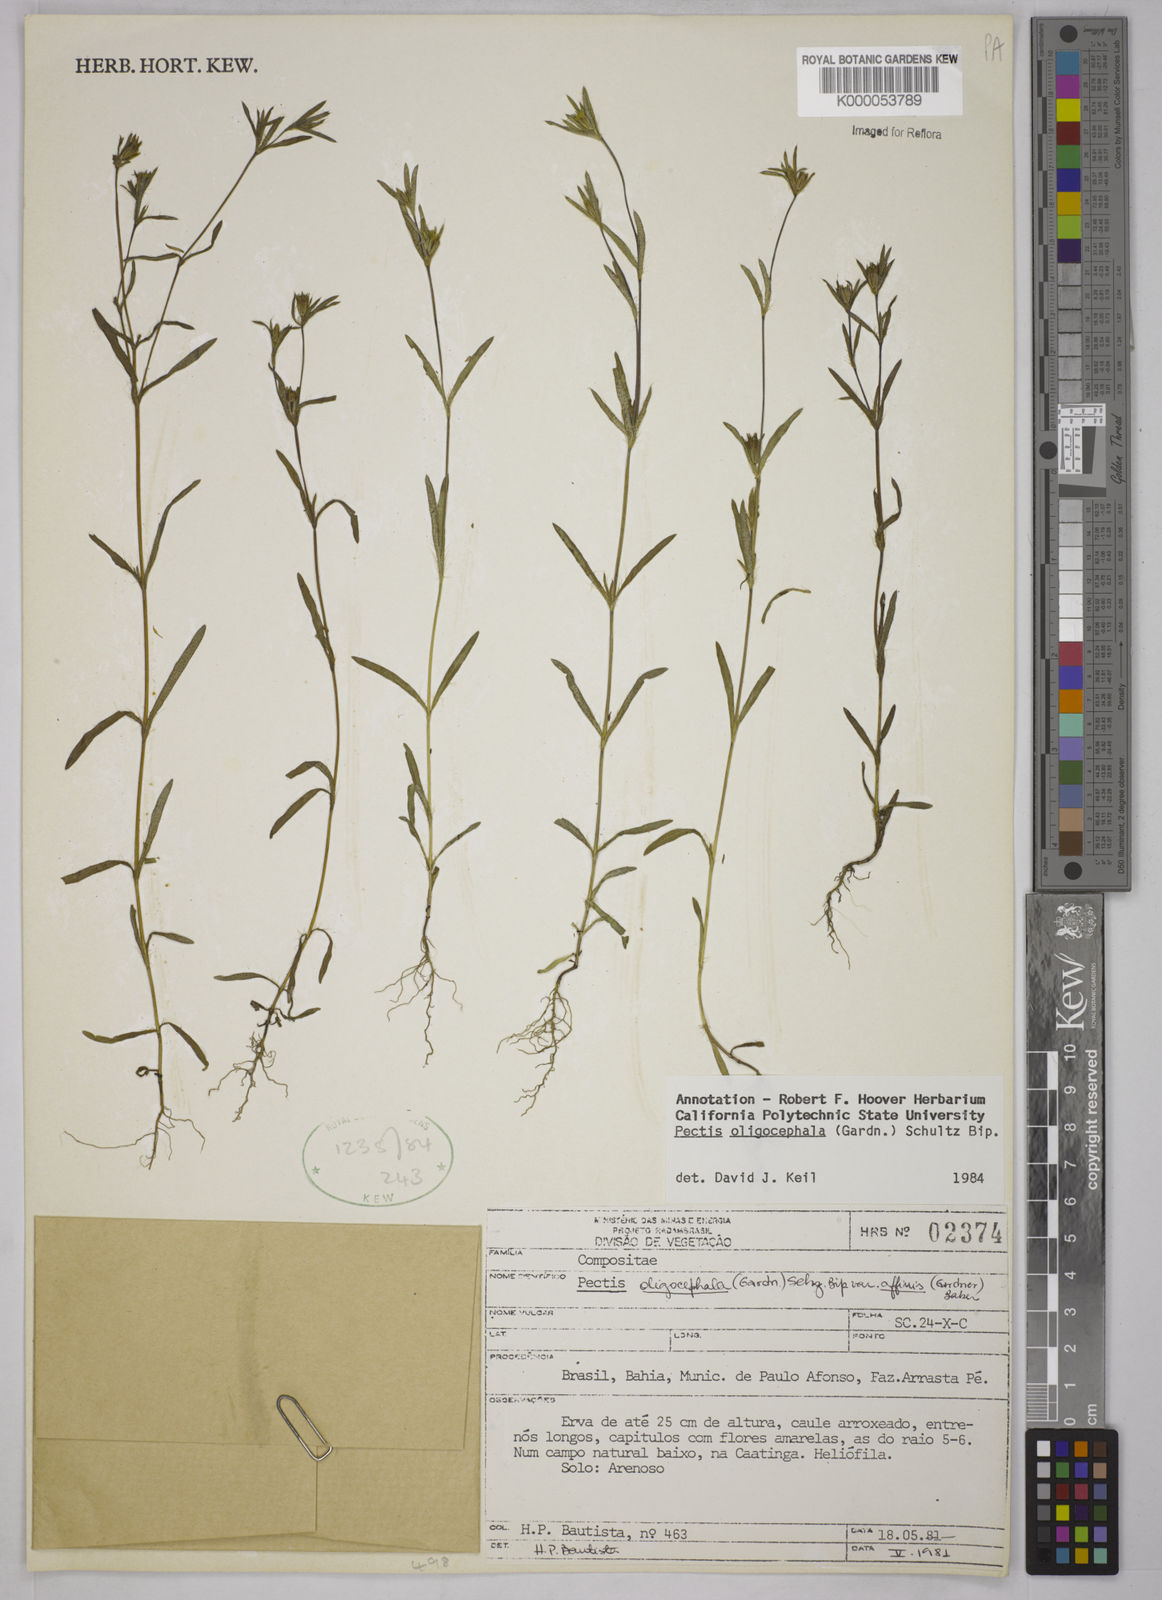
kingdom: Plantae
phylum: Tracheophyta
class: Magnoliopsida
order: Asterales
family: Asteraceae
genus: Pectis
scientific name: Pectis oligocephala
